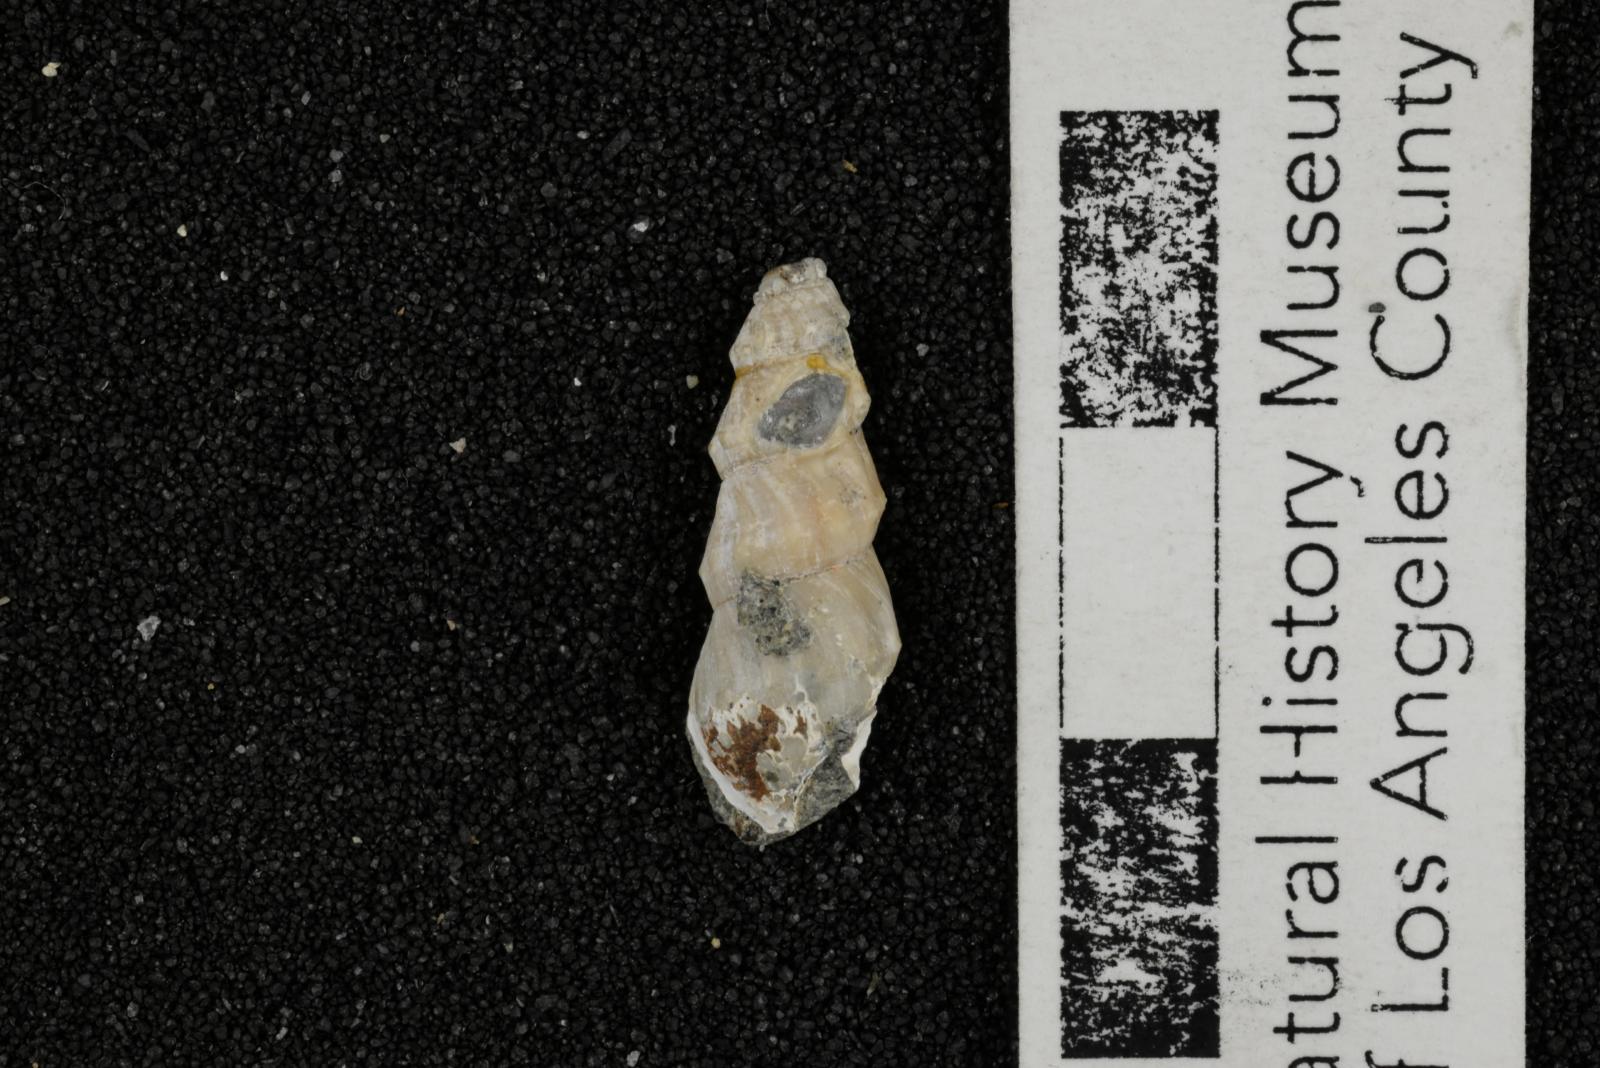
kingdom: Animalia
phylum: Mollusca
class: Gastropoda
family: Potamididae
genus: Potamides
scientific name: Potamides tenuis
